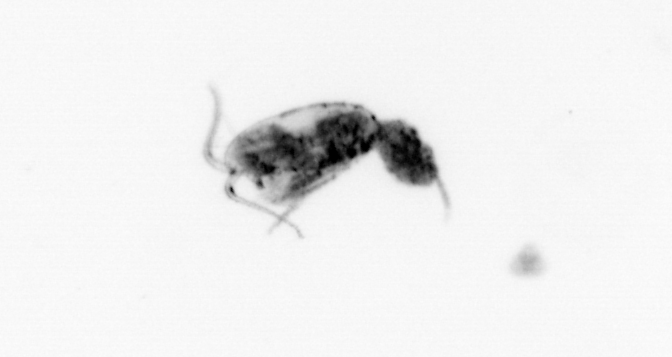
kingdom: Animalia
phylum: Arthropoda
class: Copepoda
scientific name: Copepoda
